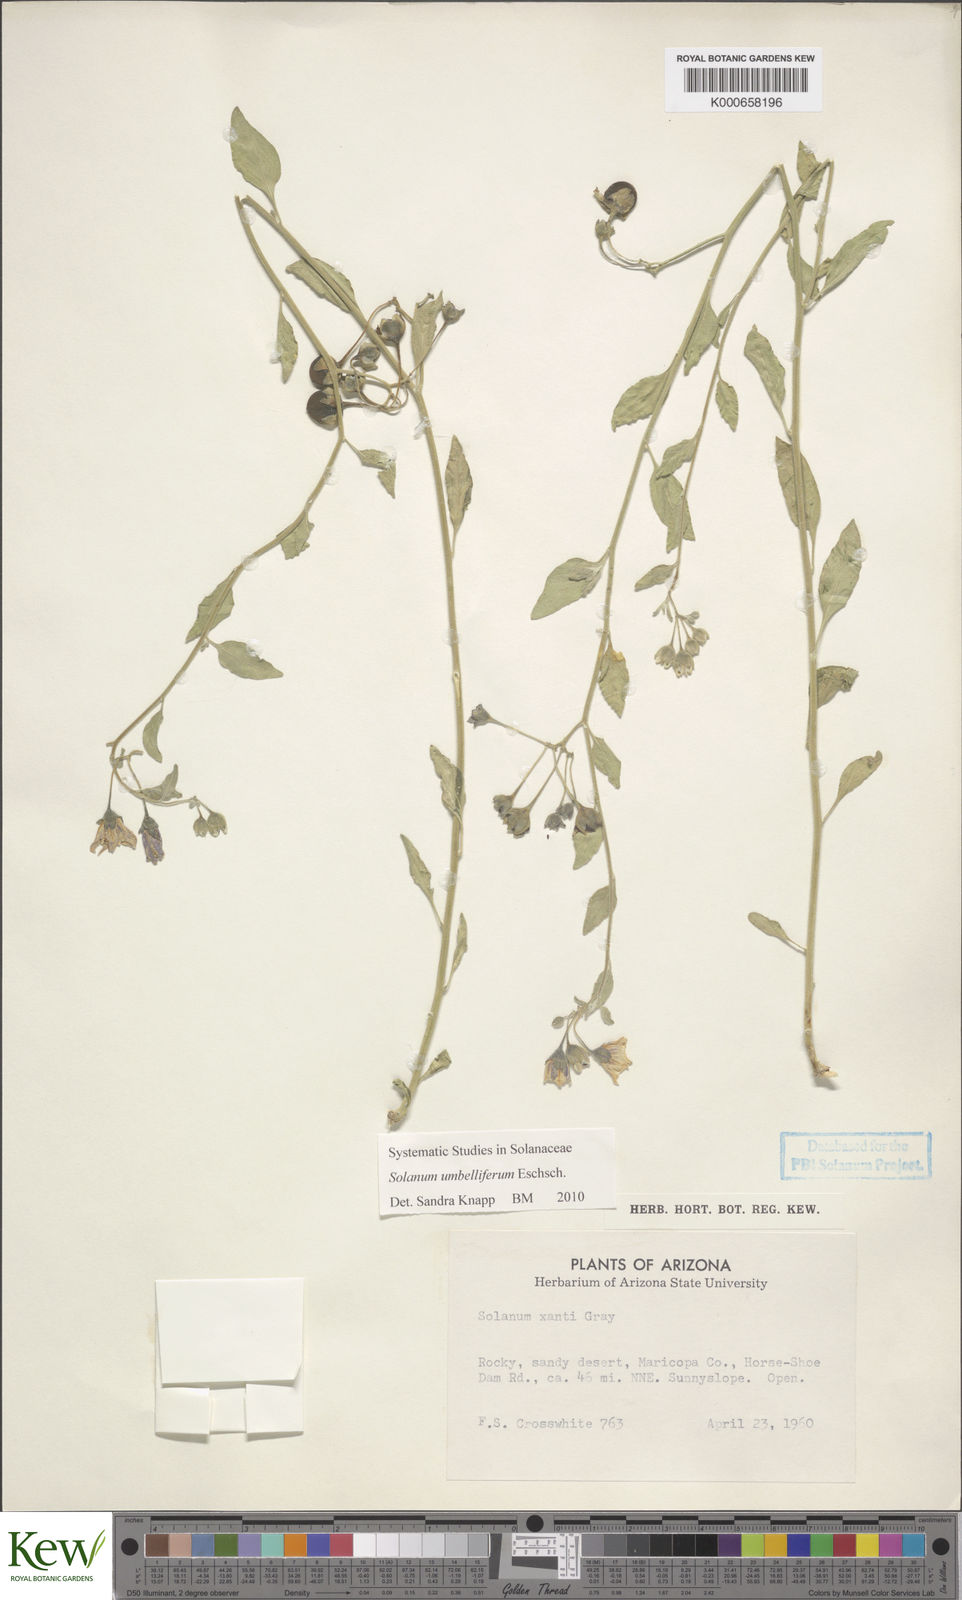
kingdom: Plantae
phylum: Tracheophyta
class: Magnoliopsida
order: Solanales
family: Solanaceae
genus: Solanum
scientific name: Solanum umbelliferum
